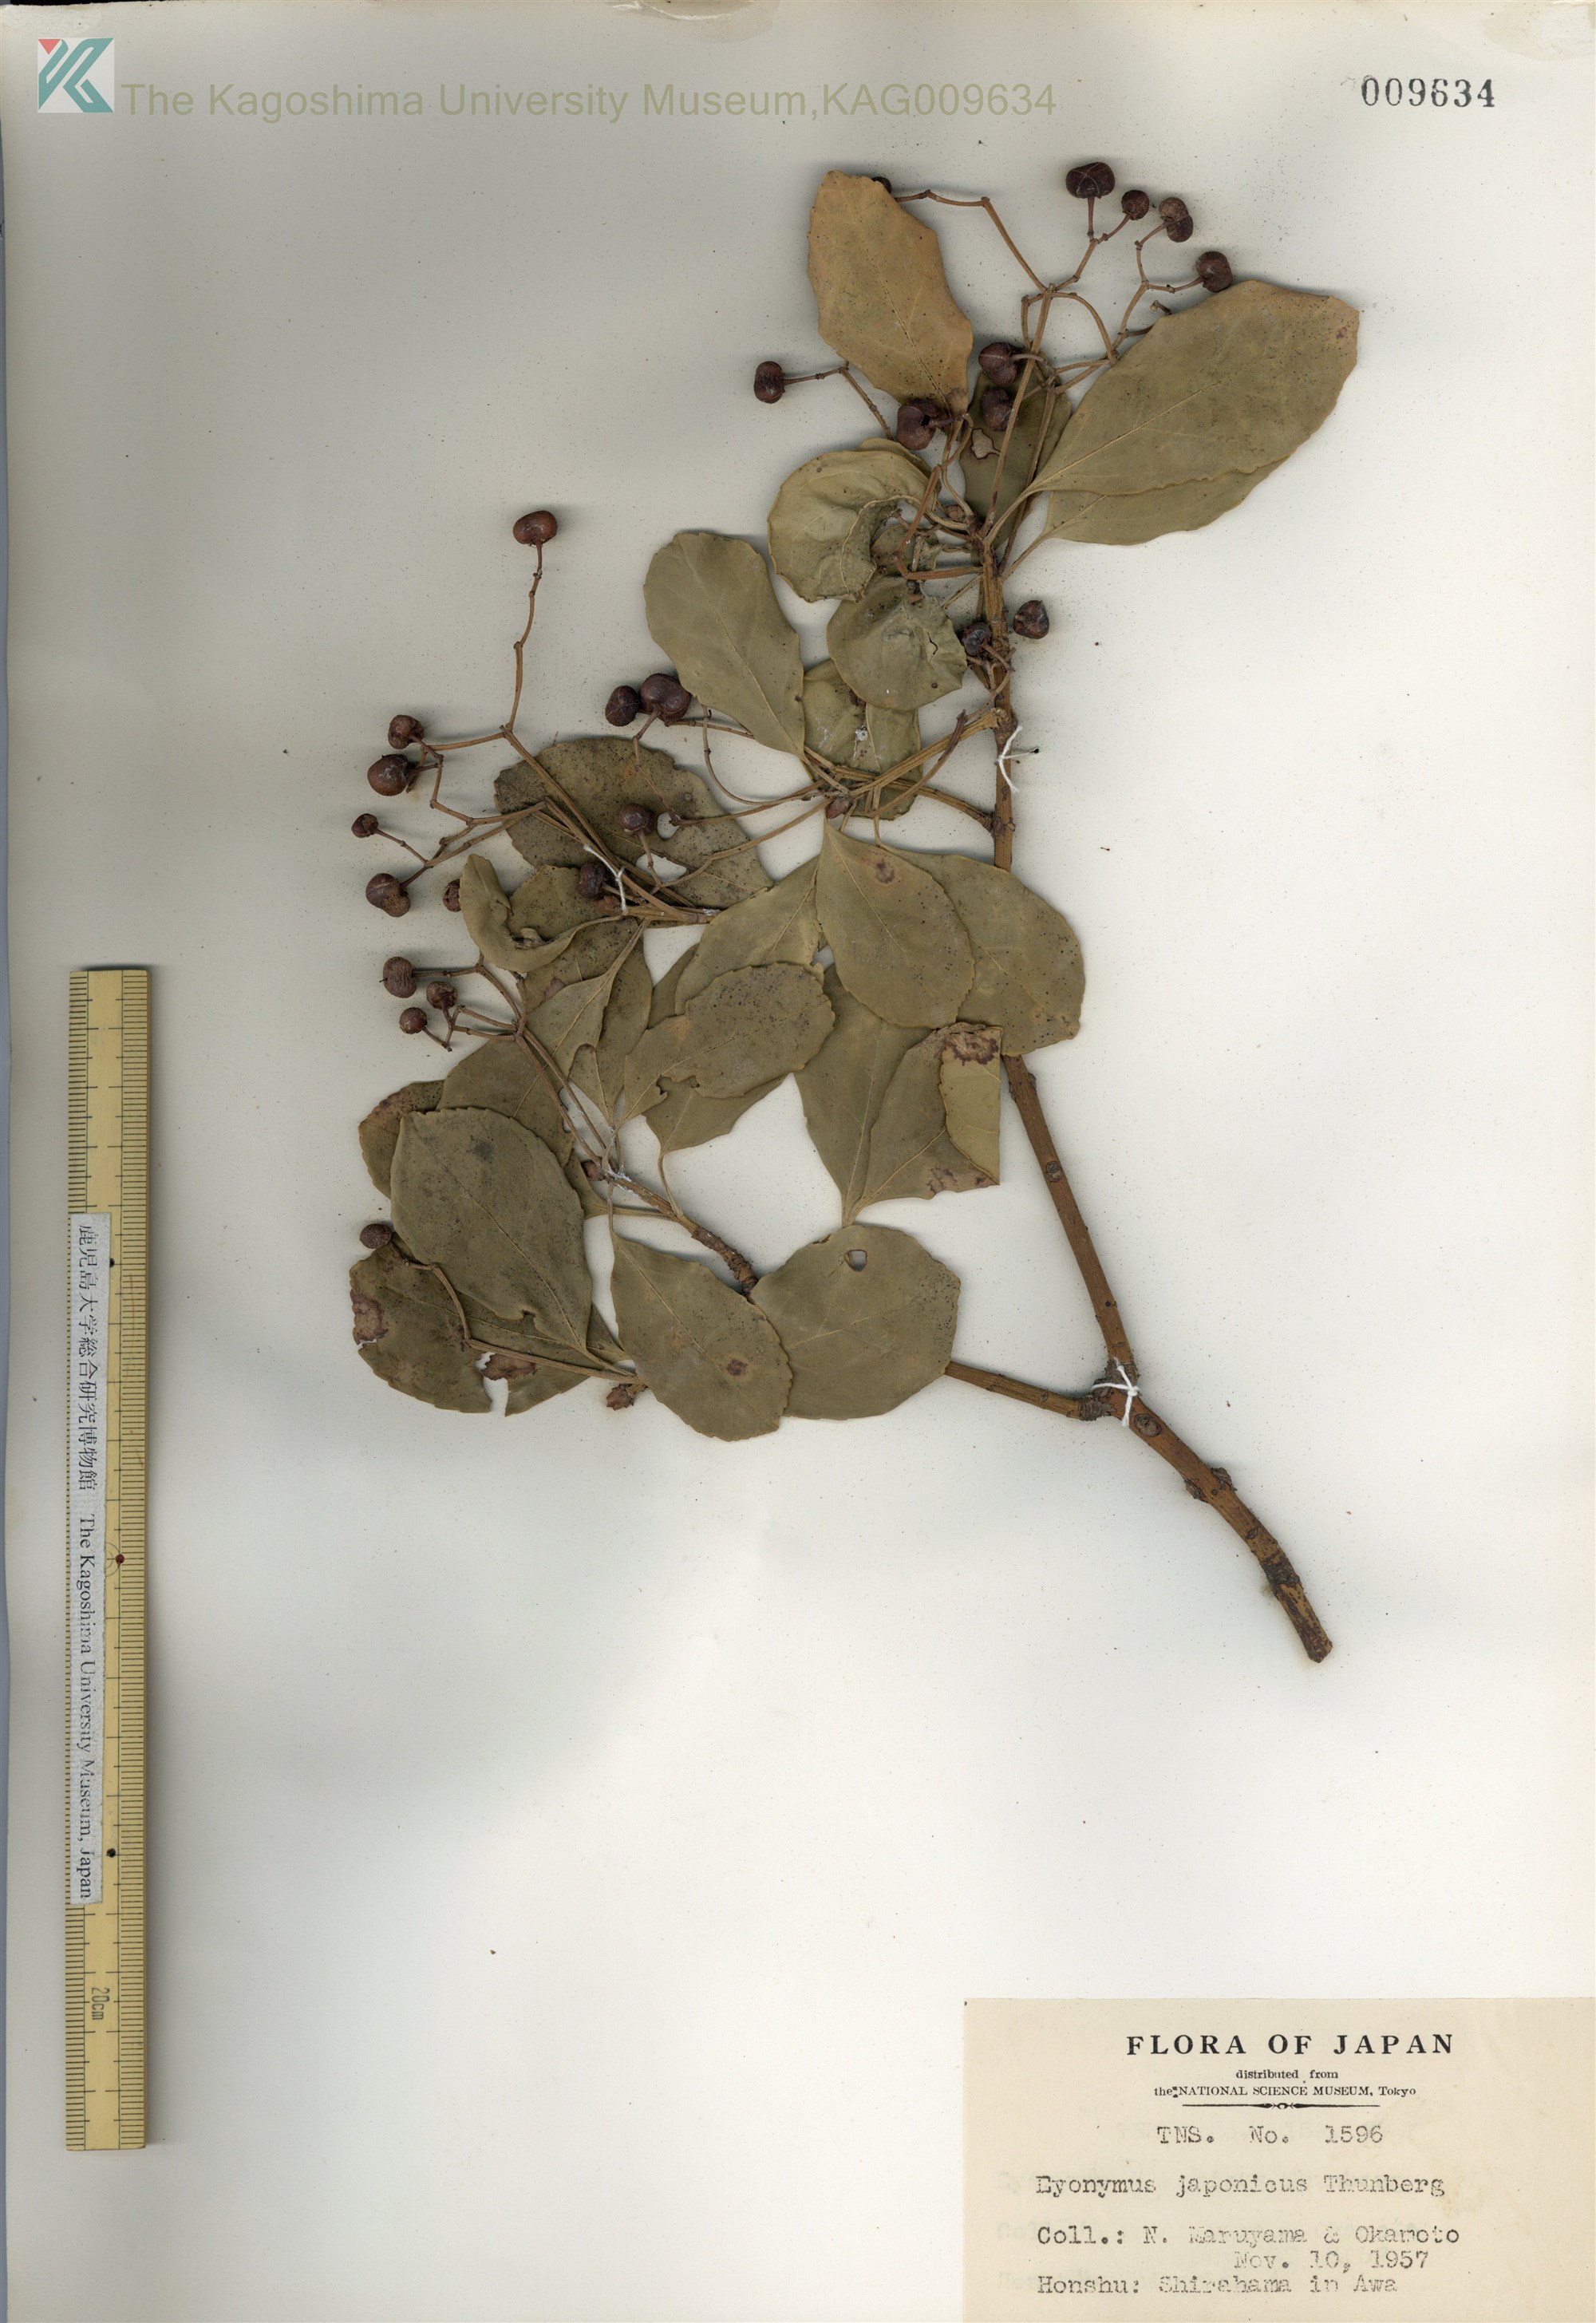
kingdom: Plantae
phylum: Tracheophyta
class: Magnoliopsida
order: Celastrales
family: Celastraceae
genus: Euonymus
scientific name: Euonymus japonicus
